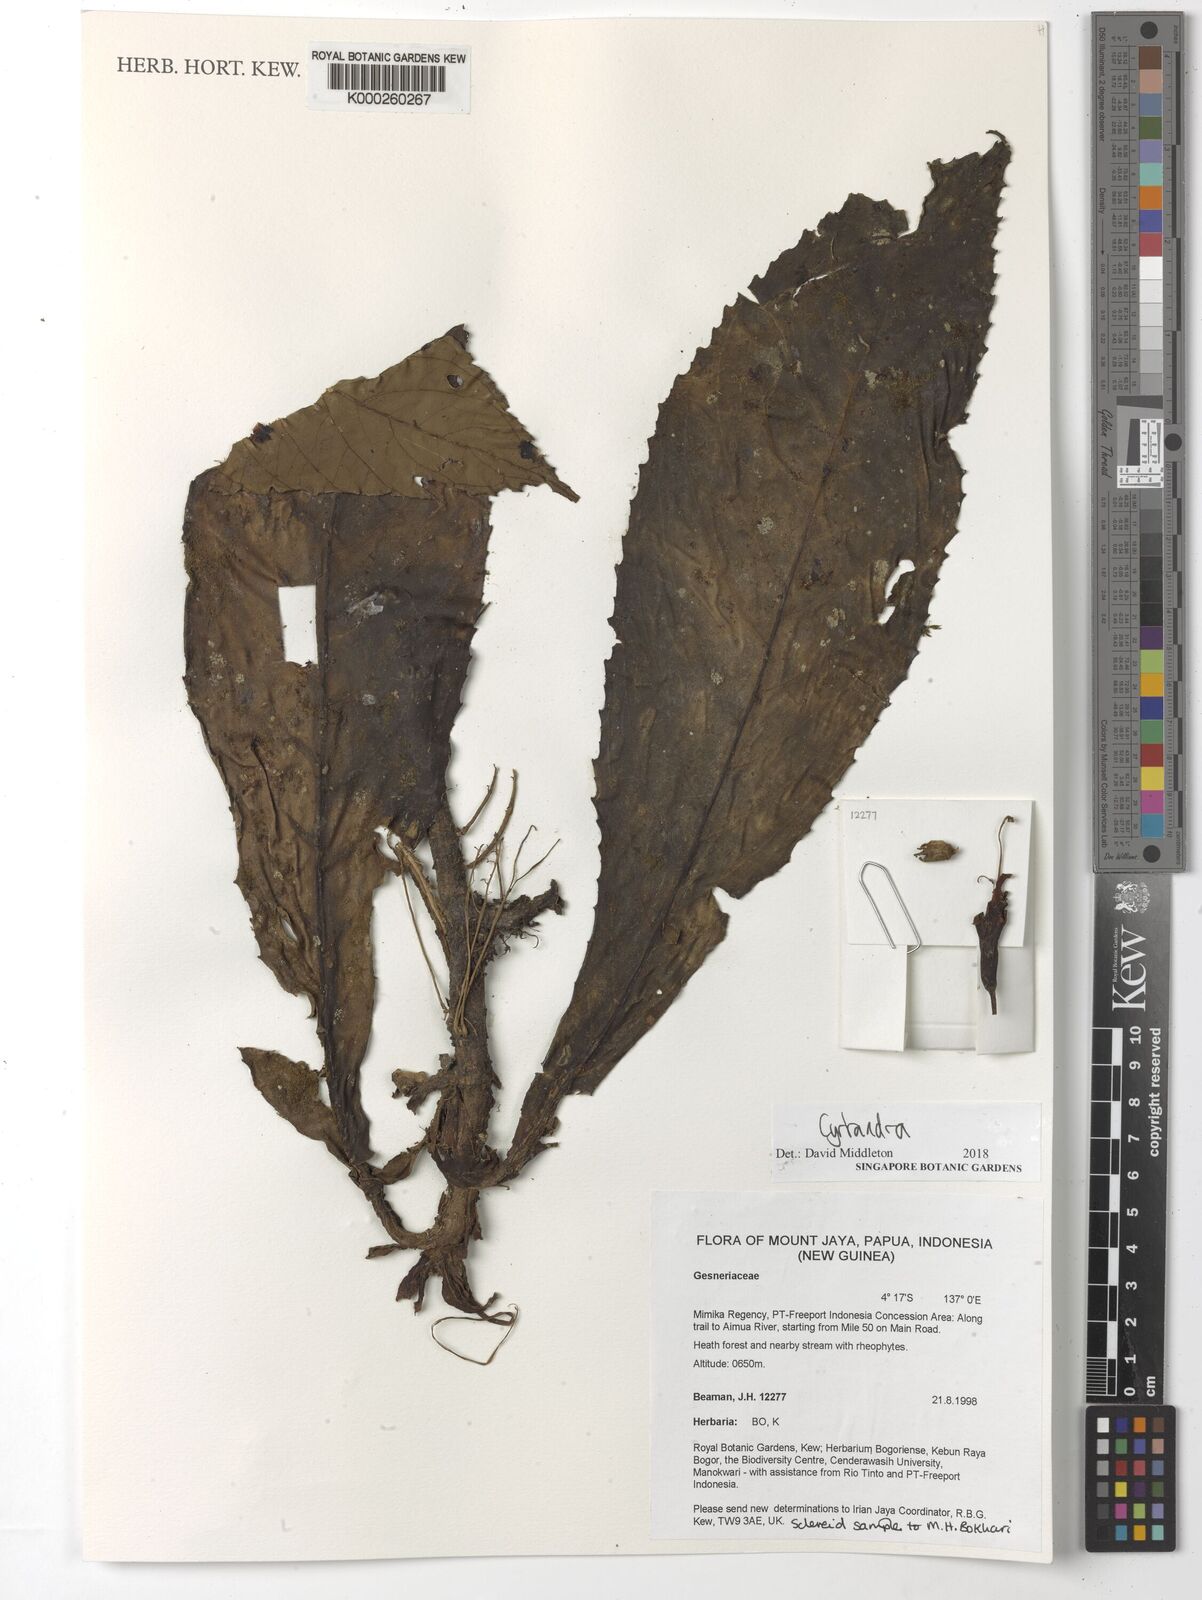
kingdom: Plantae
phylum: Tracheophyta
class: Magnoliopsida
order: Lamiales
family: Gesneriaceae
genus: Cyrtandra
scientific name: Cyrtandra
